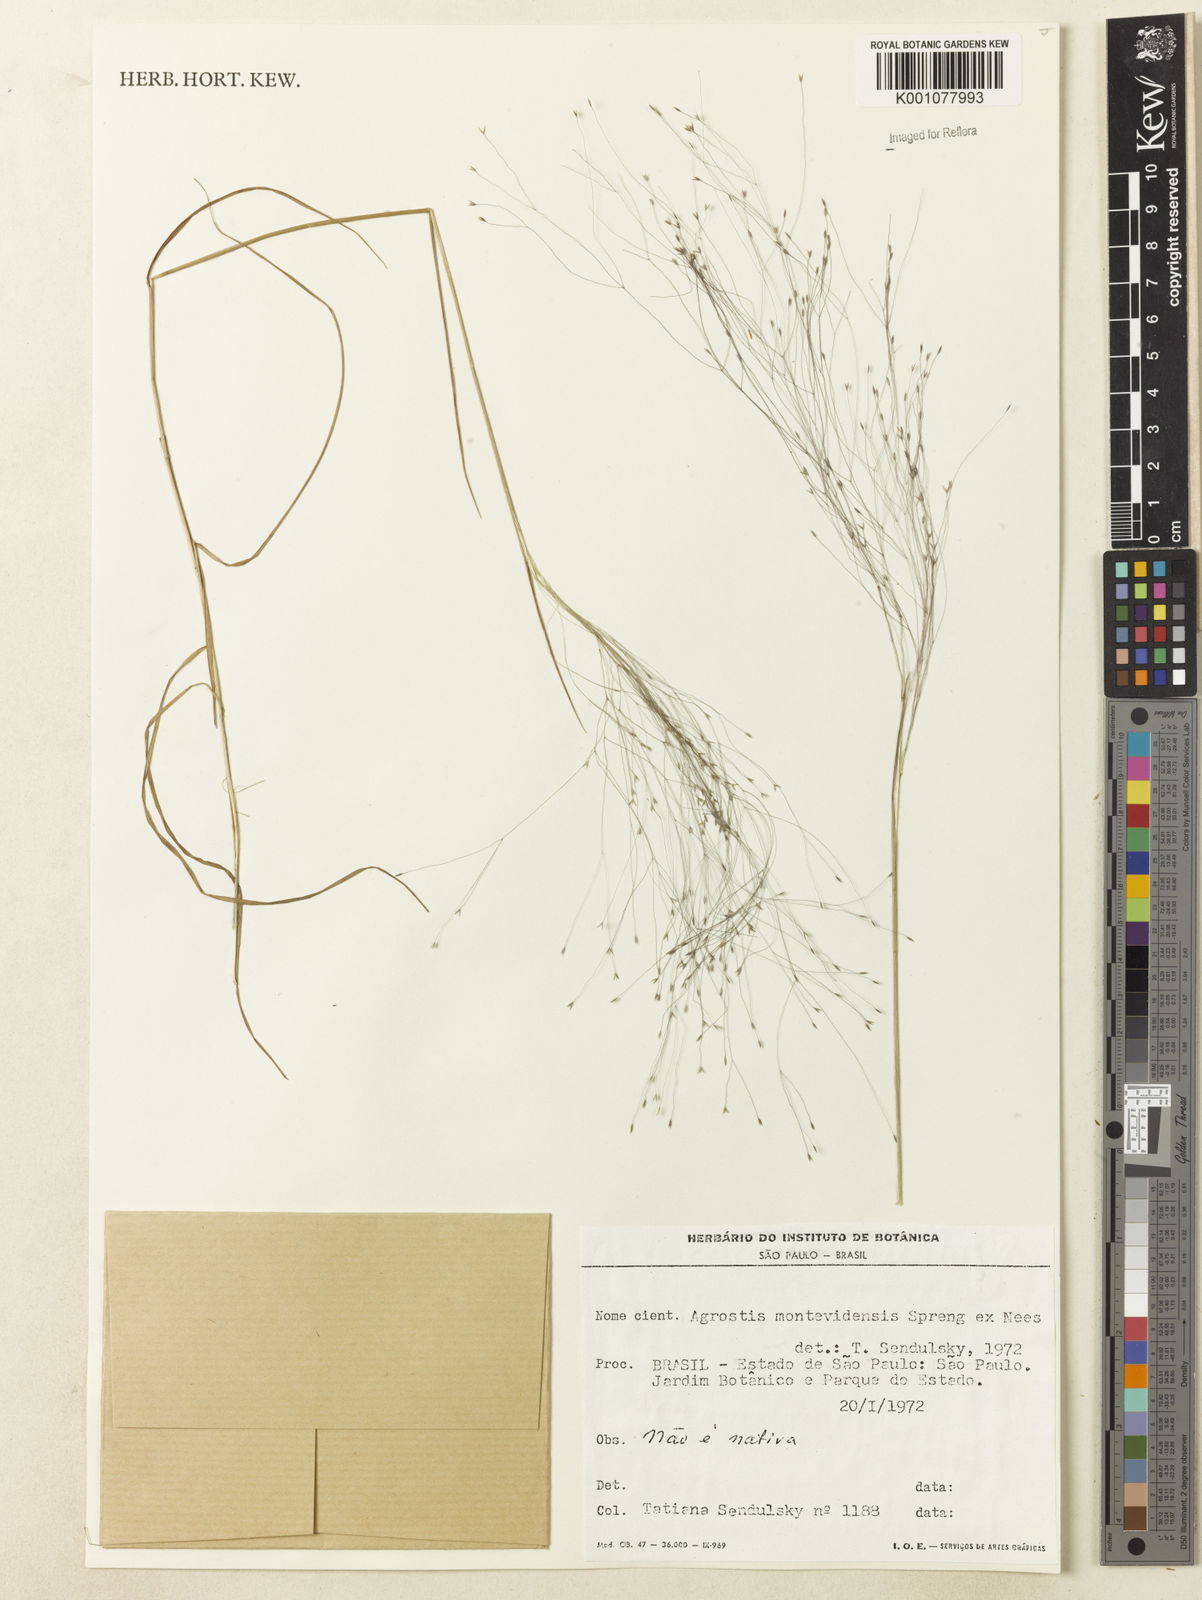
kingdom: Plantae
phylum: Tracheophyta
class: Liliopsida
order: Poales
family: Poaceae
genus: Agrostis
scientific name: Agrostis montevidensis
